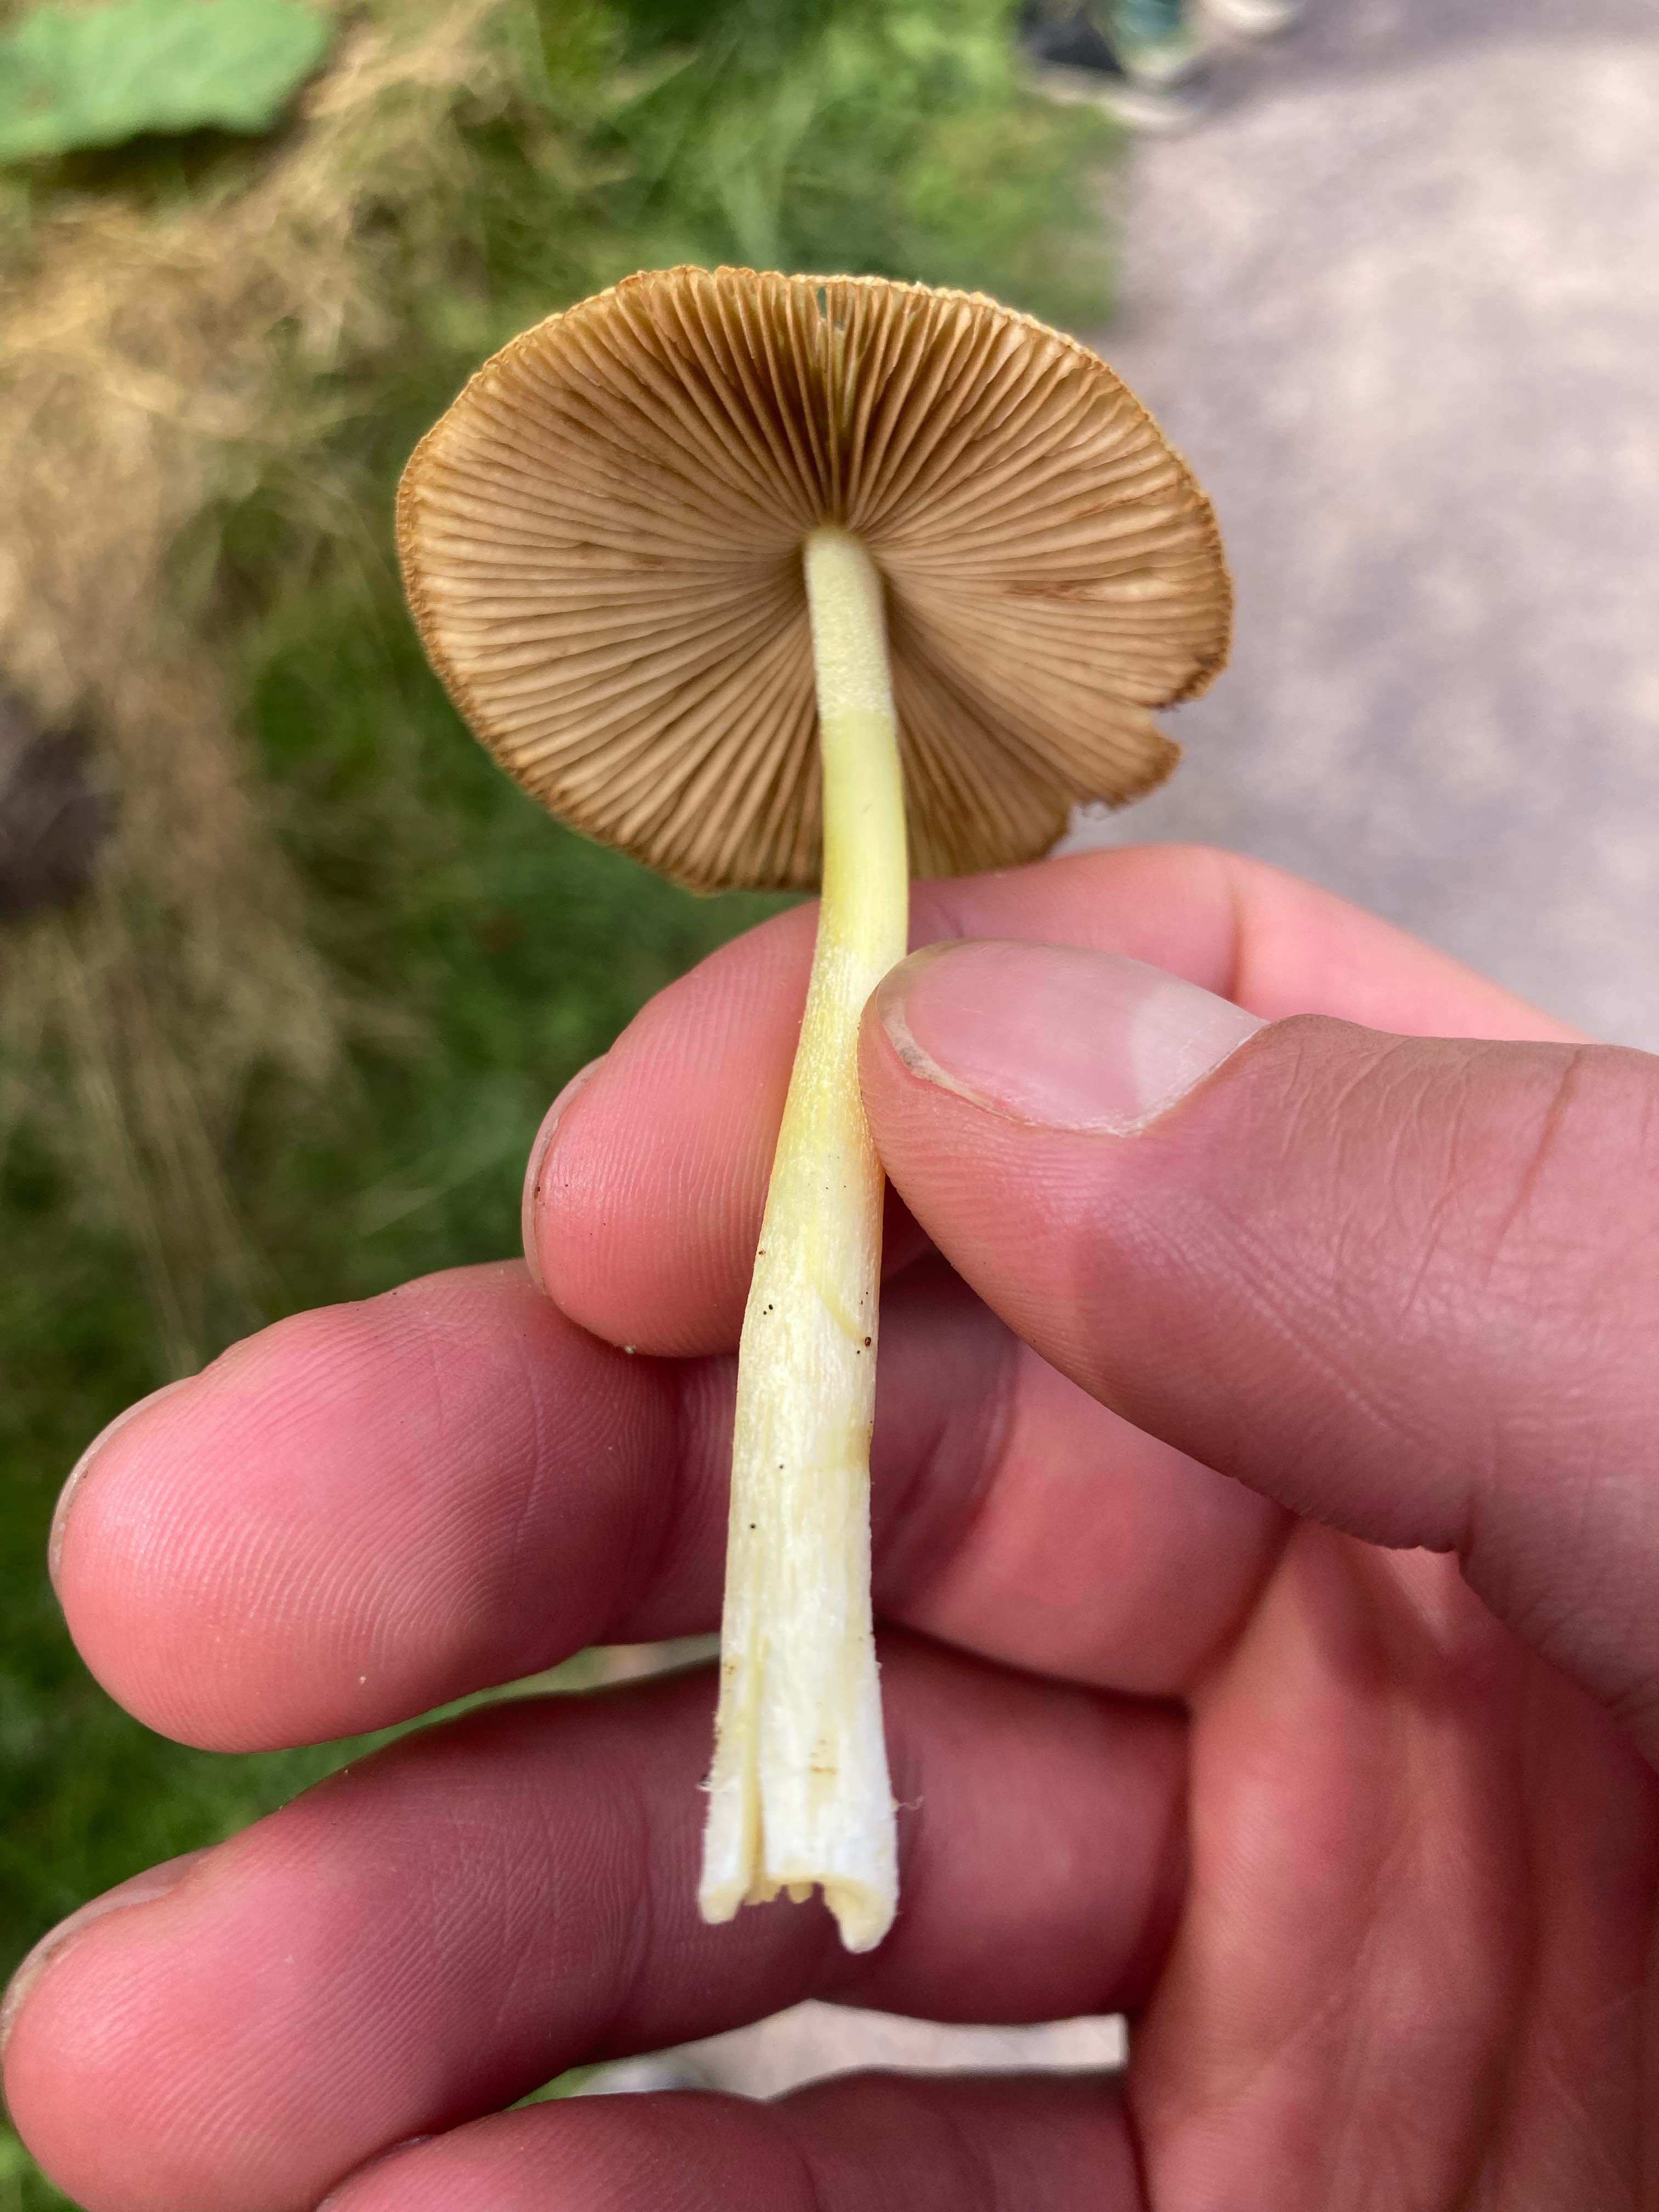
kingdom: Fungi
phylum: Basidiomycota
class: Agaricomycetes
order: Agaricales
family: Bolbitiaceae
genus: Bolbitius
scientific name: Bolbitius titubans
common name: almindelig gulhat
